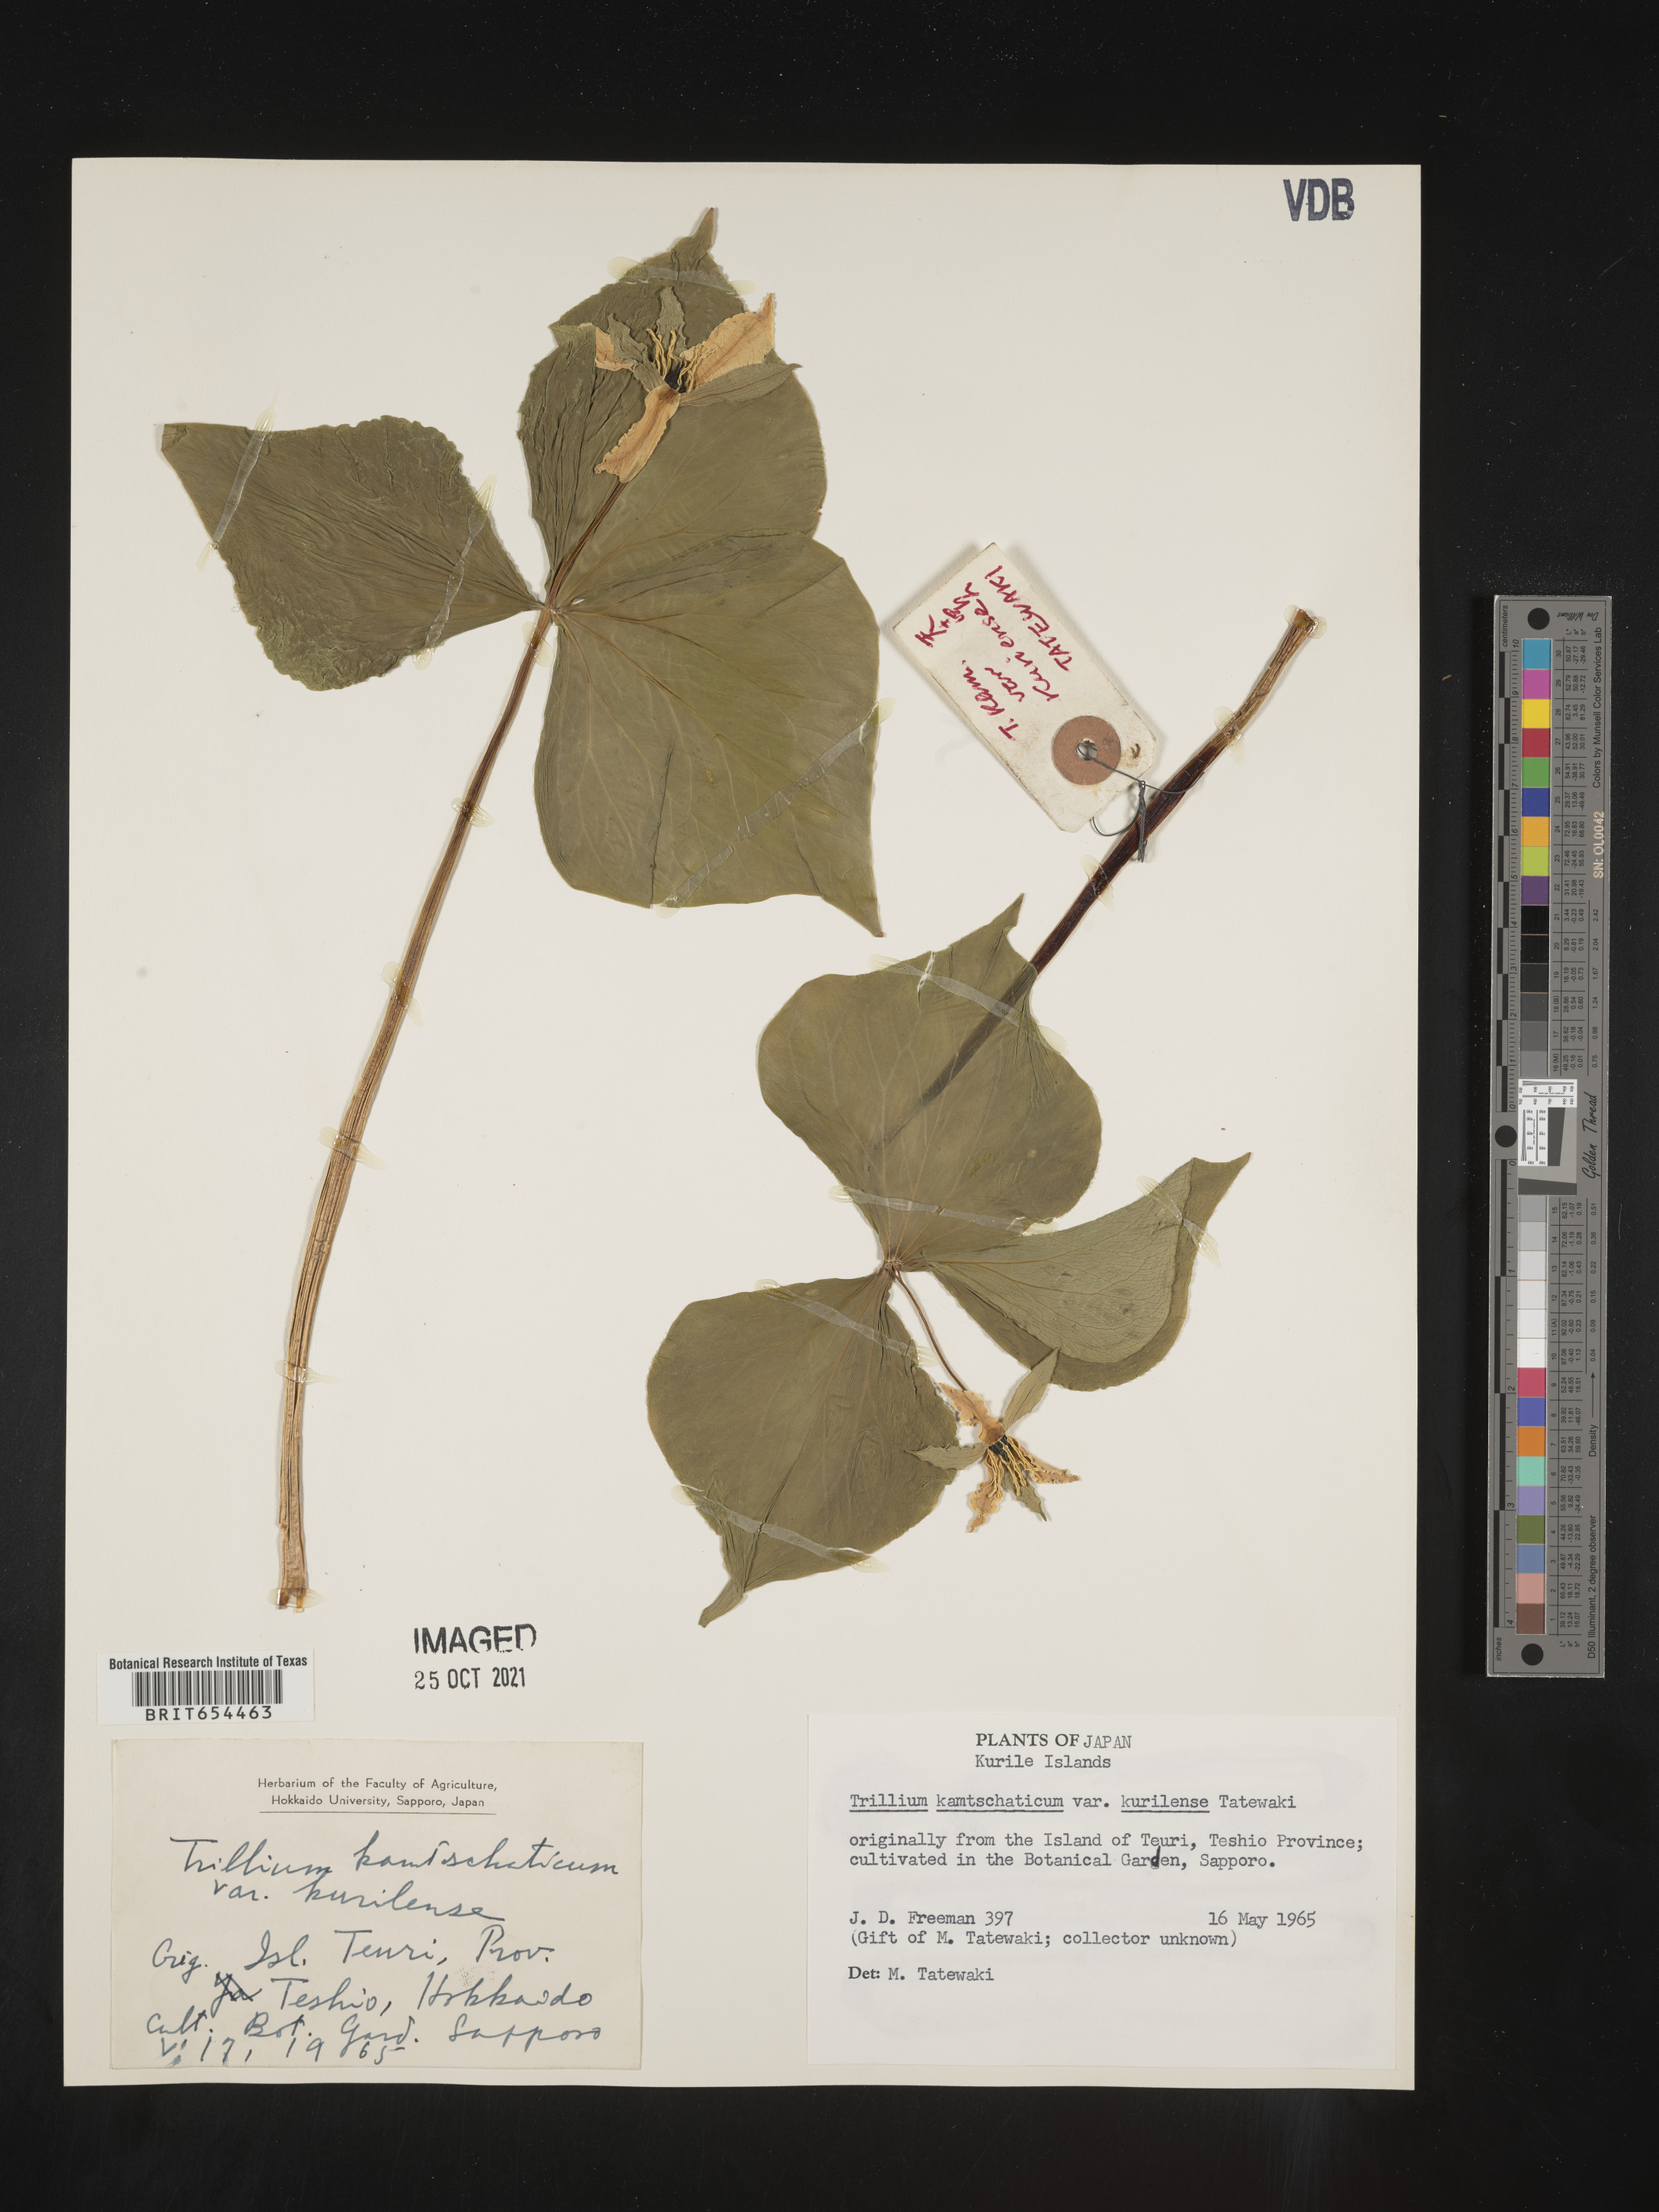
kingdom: Plantae
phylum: Tracheophyta
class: Liliopsida
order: Liliales
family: Melanthiaceae
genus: Trillium
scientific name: Trillium
